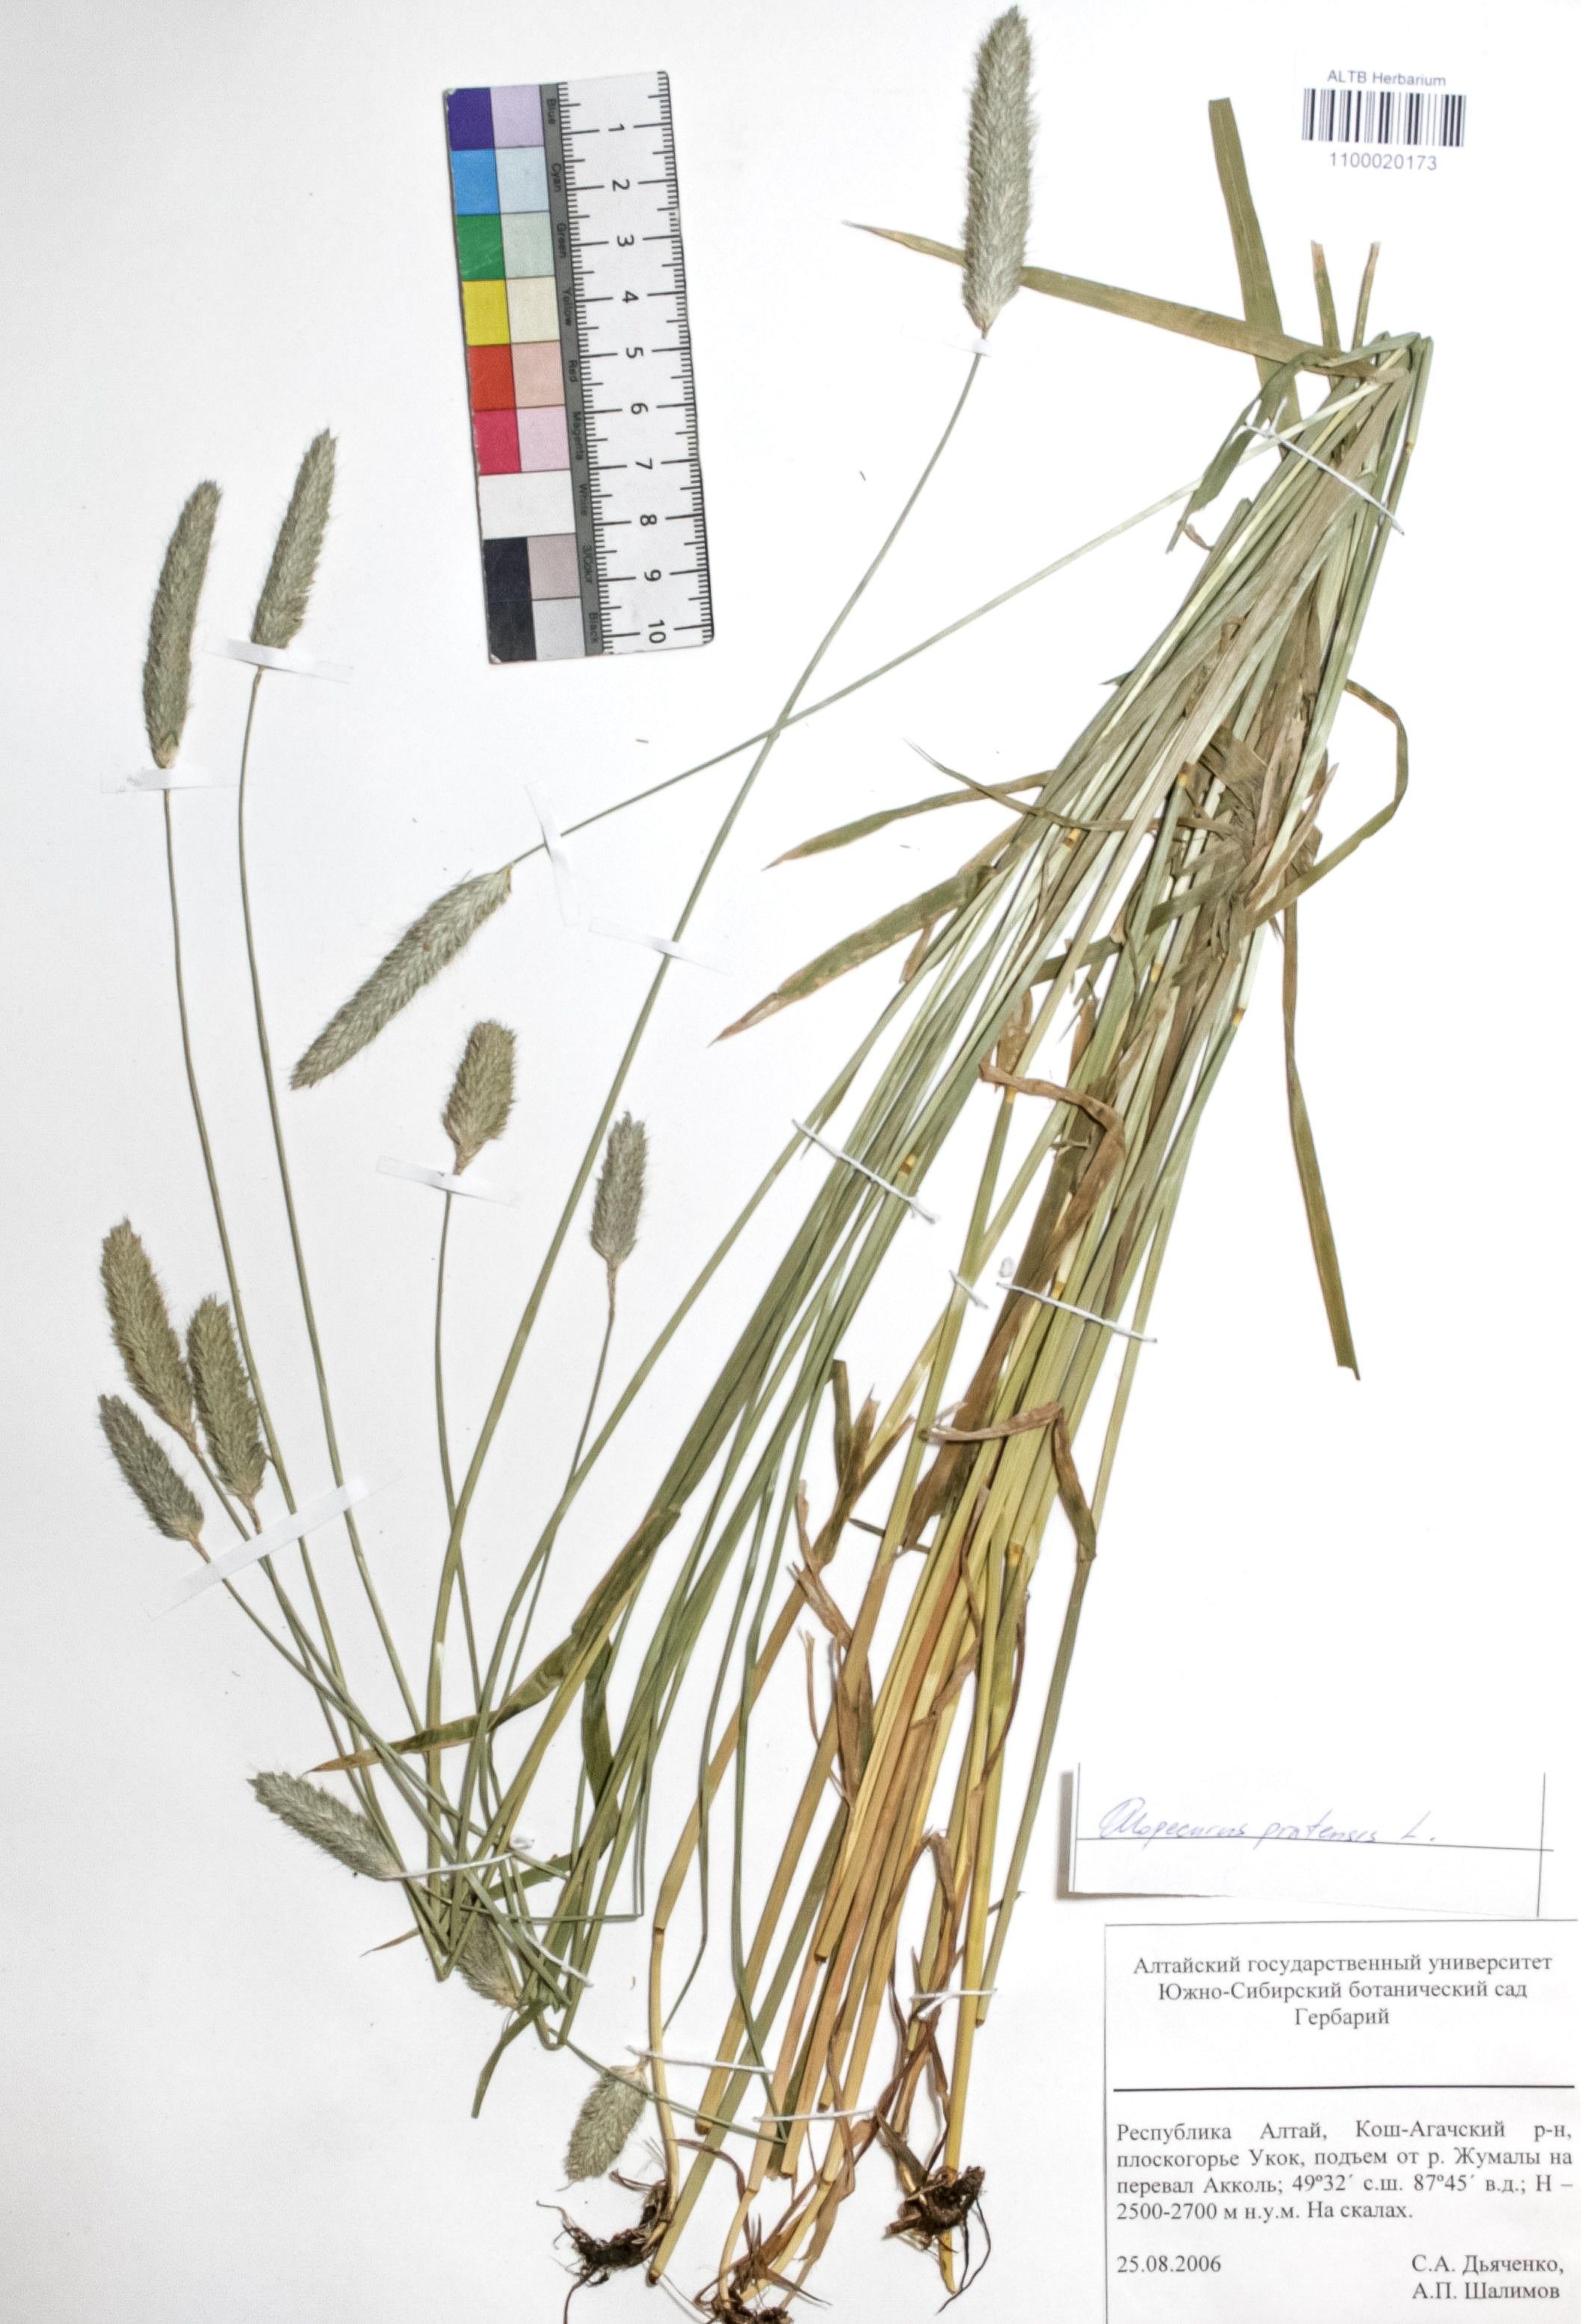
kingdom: Plantae
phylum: Tracheophyta
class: Liliopsida
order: Poales
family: Poaceae
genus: Alopecurus
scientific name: Alopecurus pratensis
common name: Meadow foxtail
